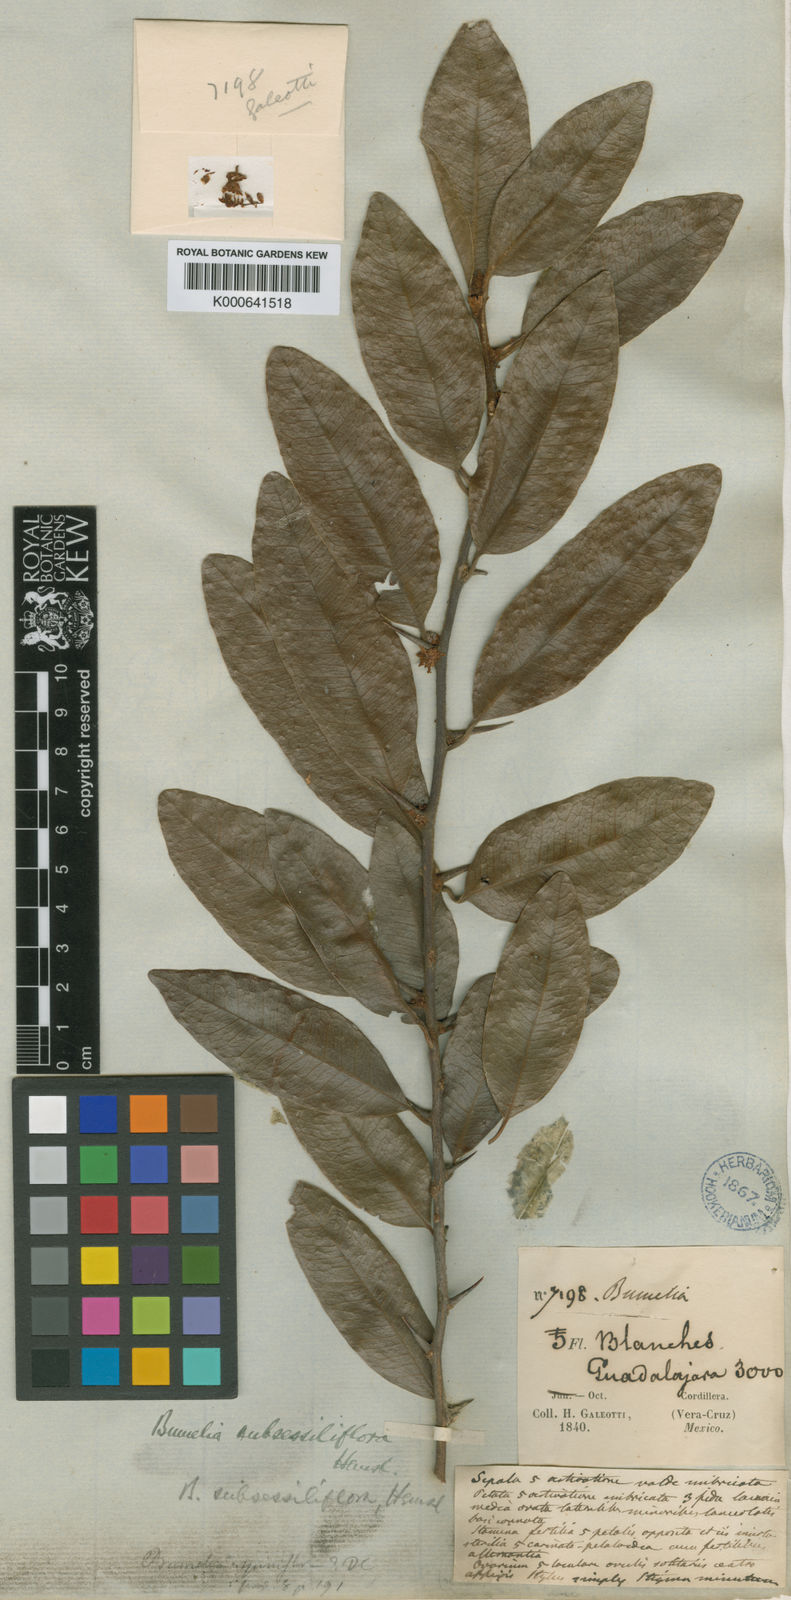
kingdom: Plantae
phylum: Tracheophyta
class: Magnoliopsida
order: Ericales
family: Sapotaceae
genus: Sideroxylon
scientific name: Sideroxylon persimile
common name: Bumelia
